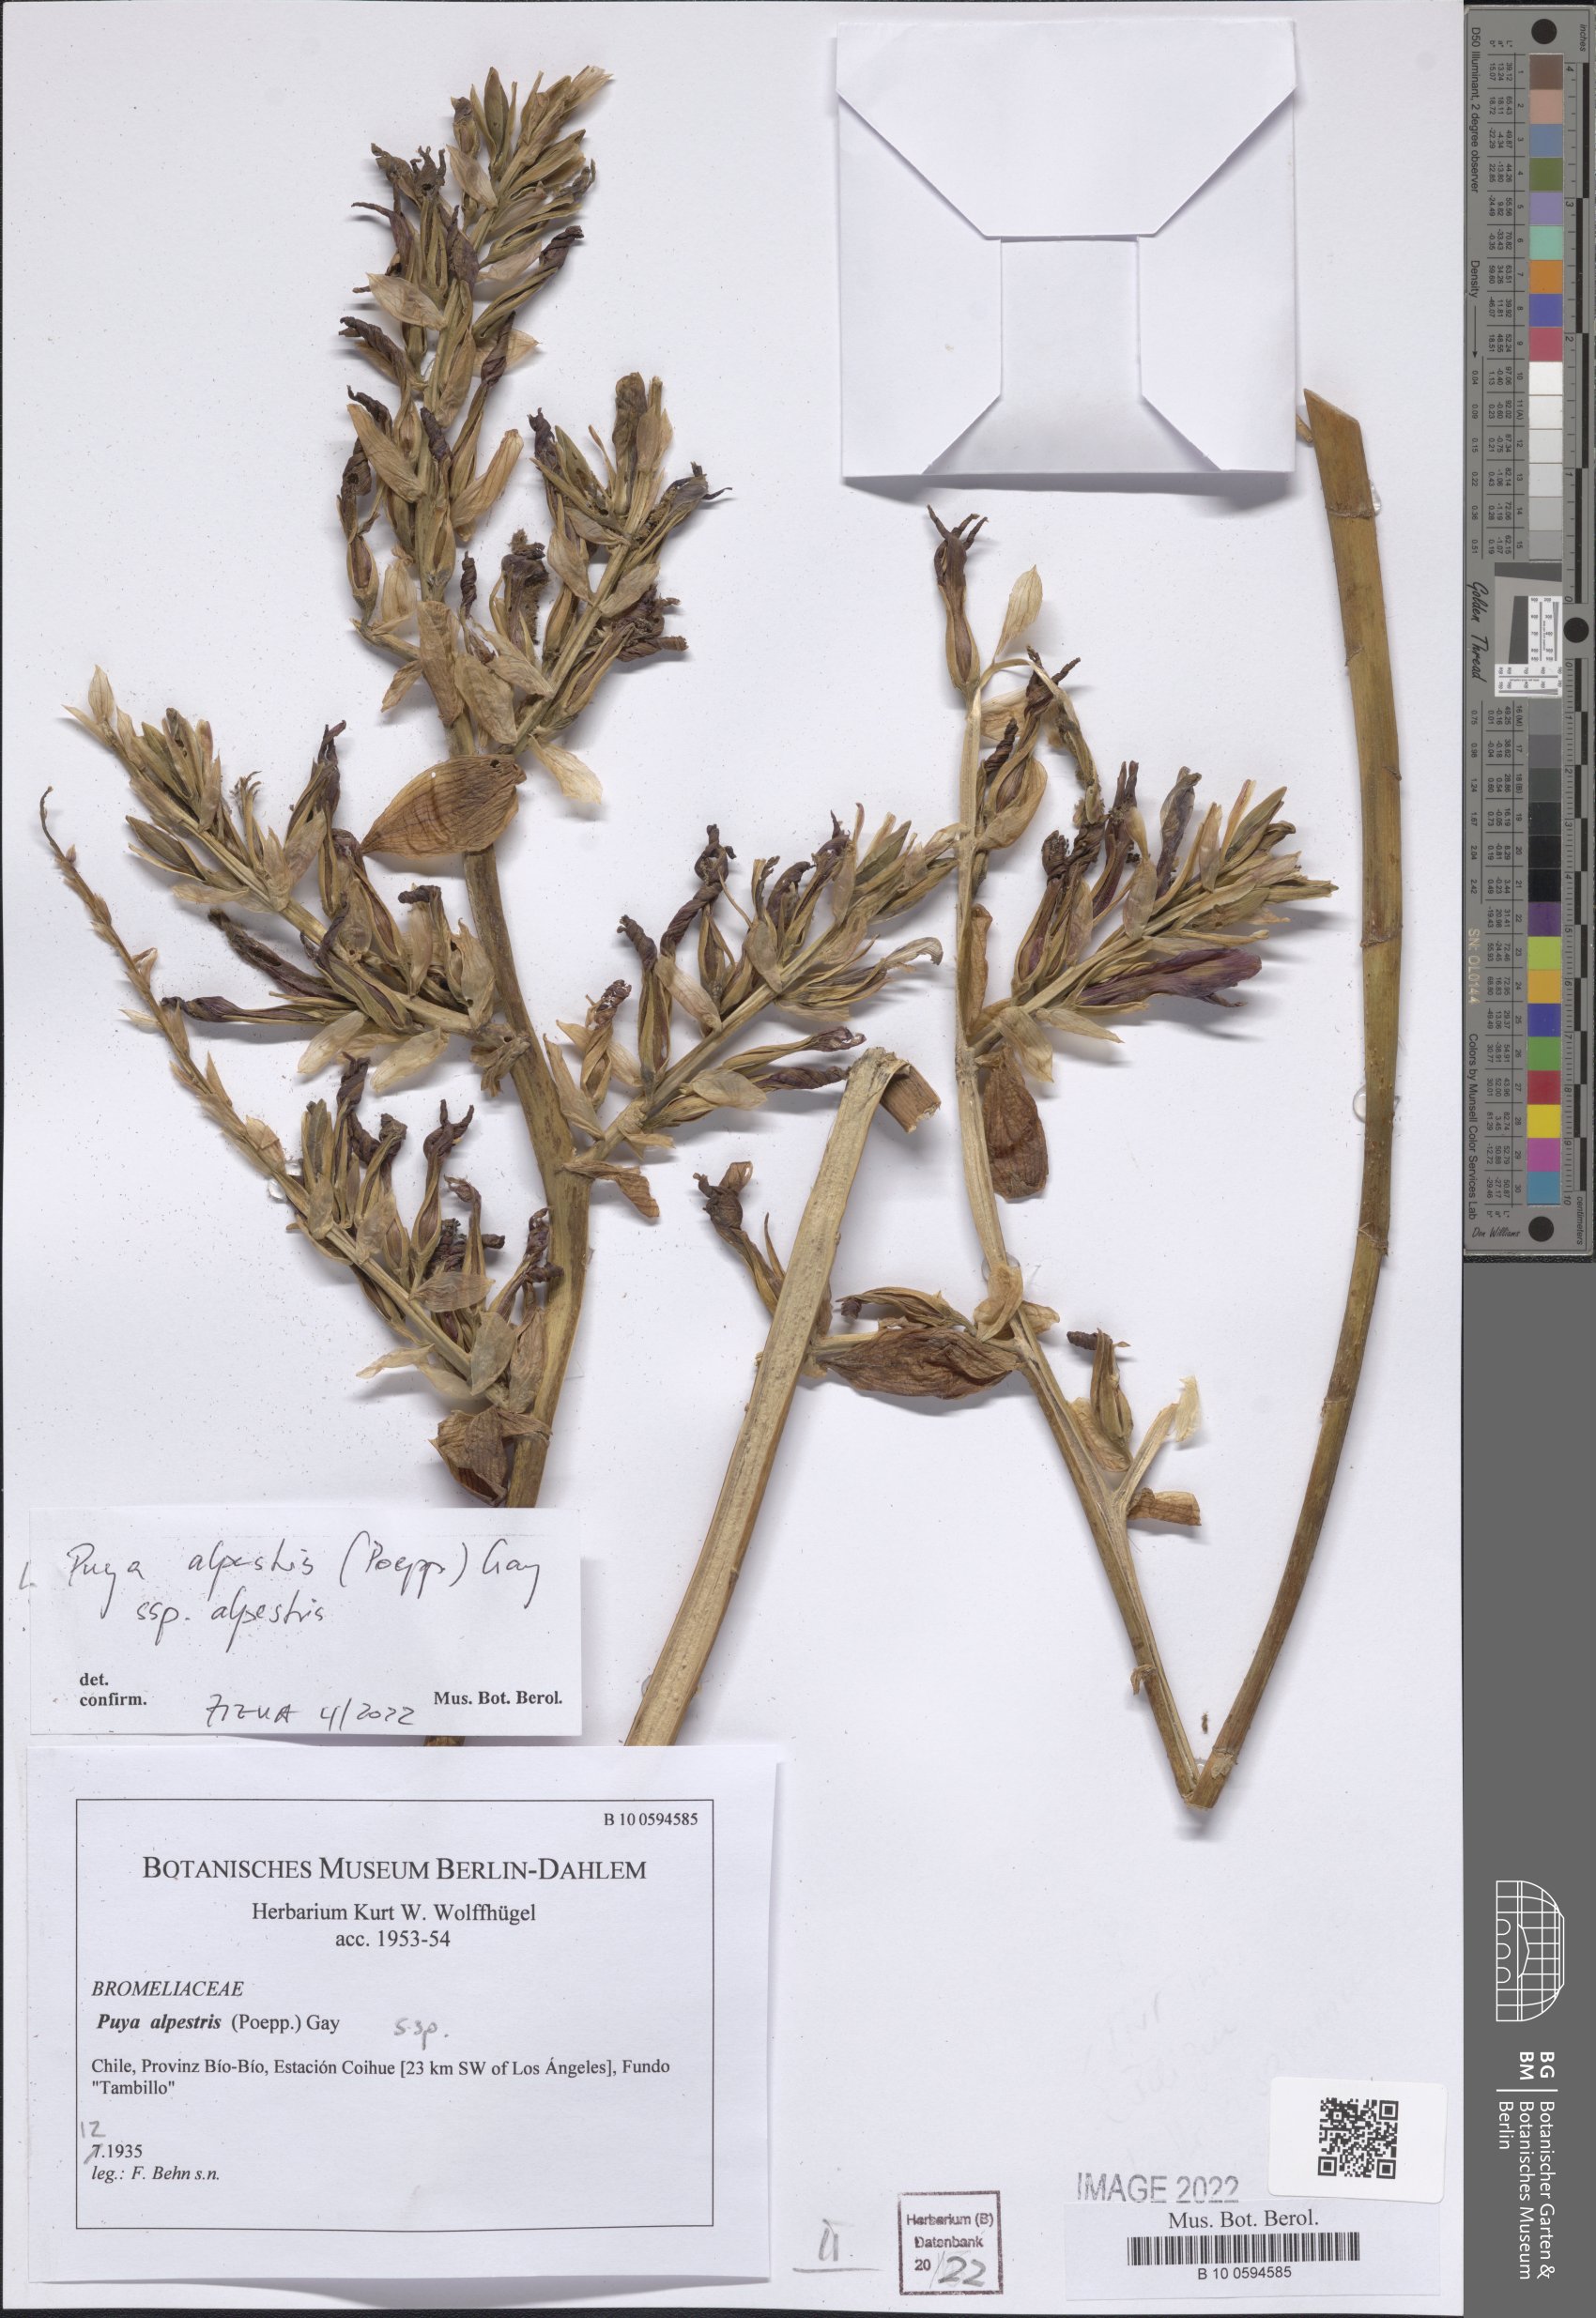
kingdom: Plantae
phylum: Tracheophyta
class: Liliopsida
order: Poales
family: Bromeliaceae
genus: Puya
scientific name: Puya alpestris
